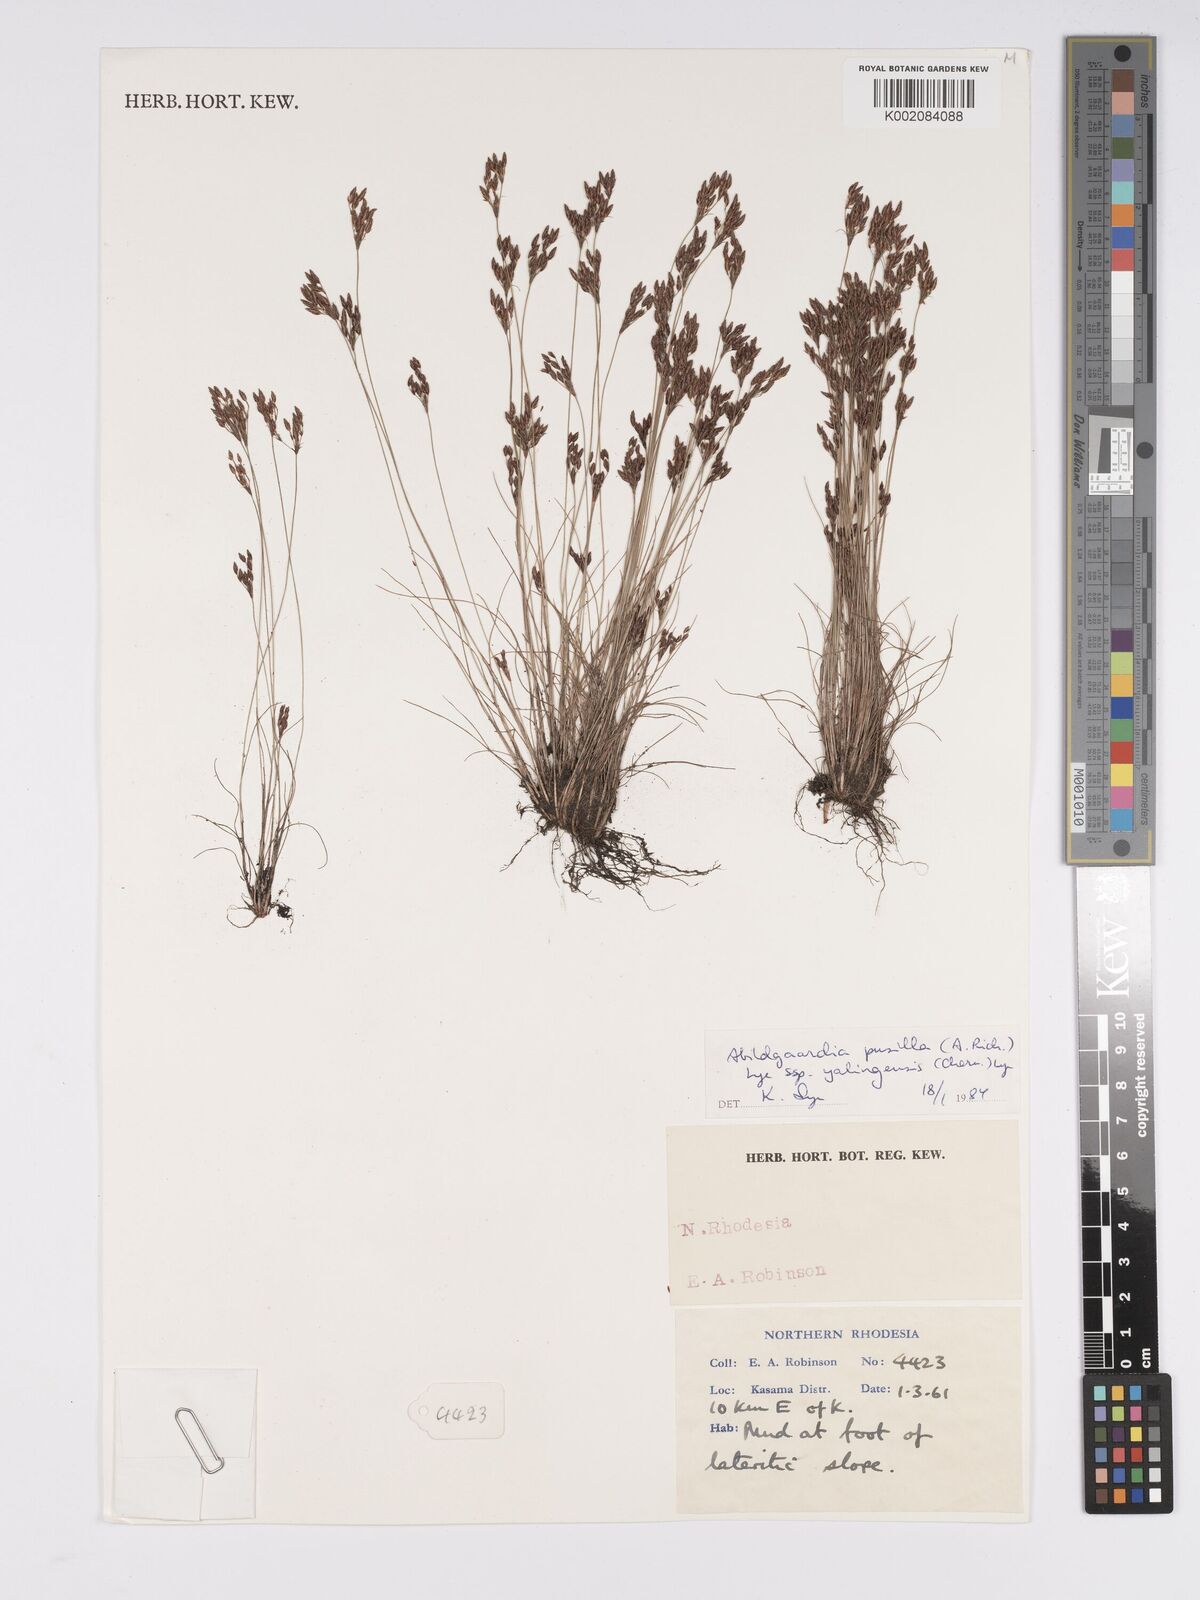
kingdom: Plantae
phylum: Tracheophyta
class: Liliopsida
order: Poales
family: Cyperaceae
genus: Bulbostylis
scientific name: Bulbostylis pusilla
